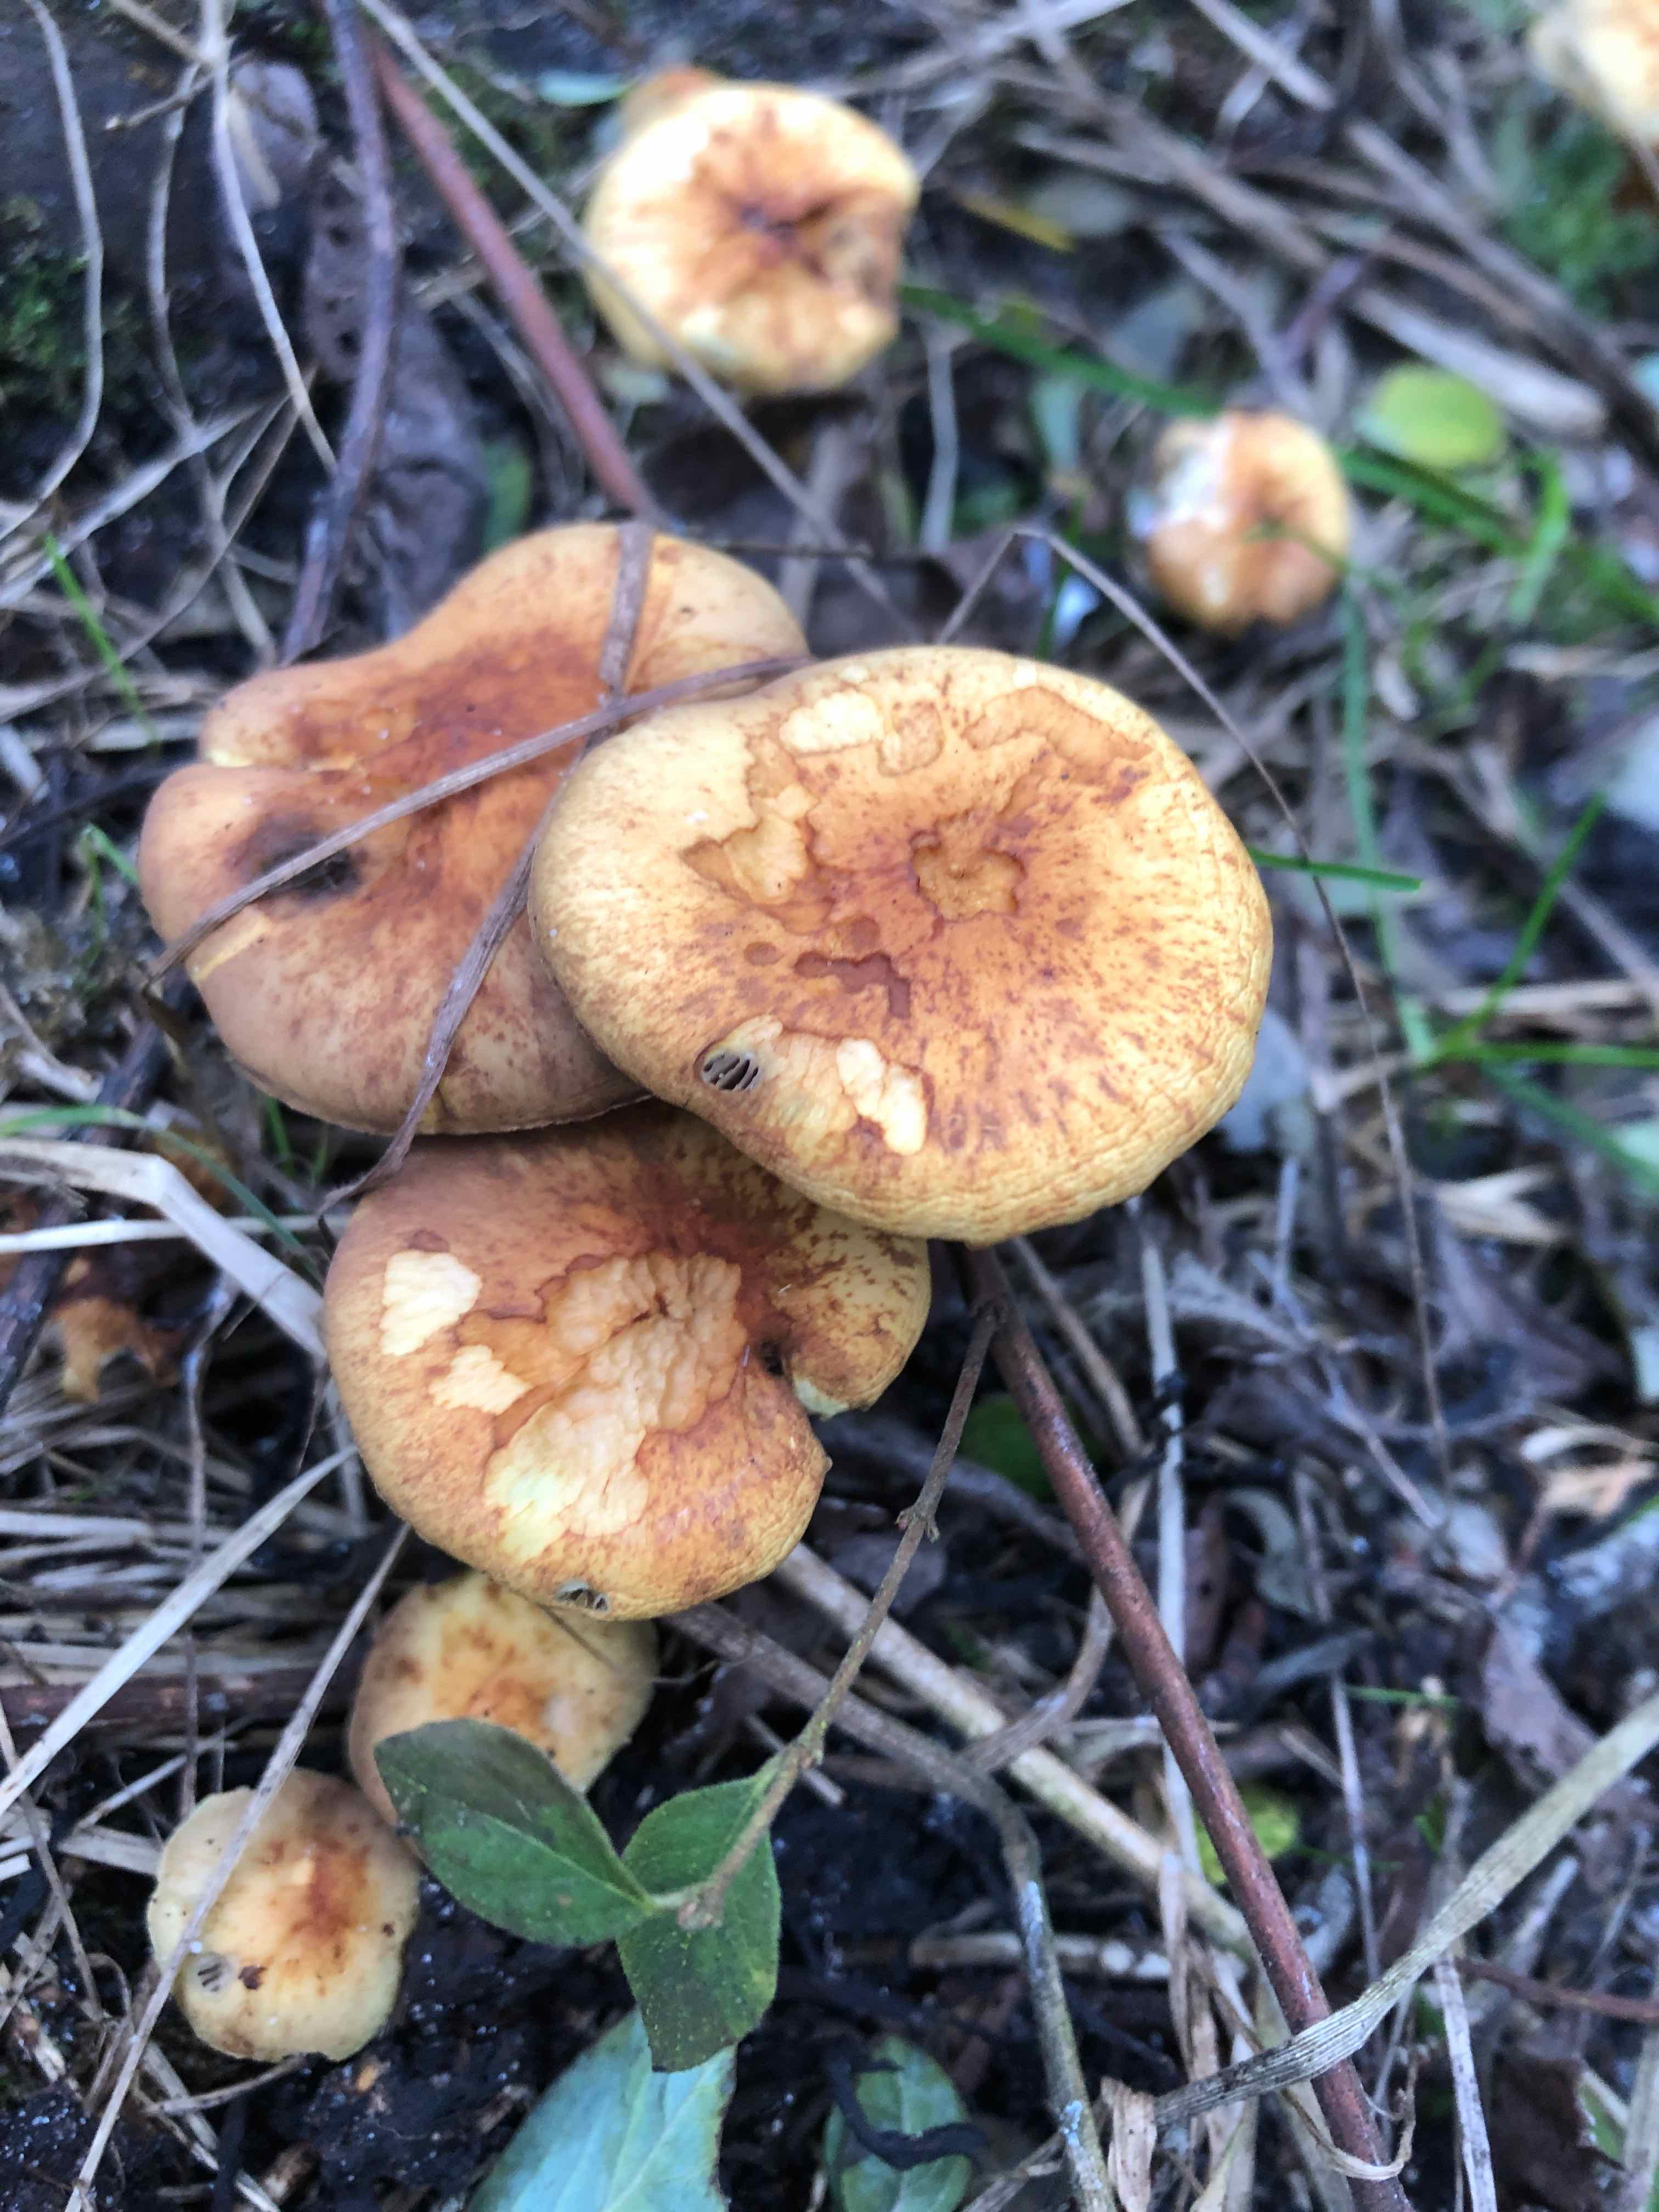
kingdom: Fungi
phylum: Basidiomycota
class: Agaricomycetes
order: Agaricales
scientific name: Agaricales
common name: champignonordenen
